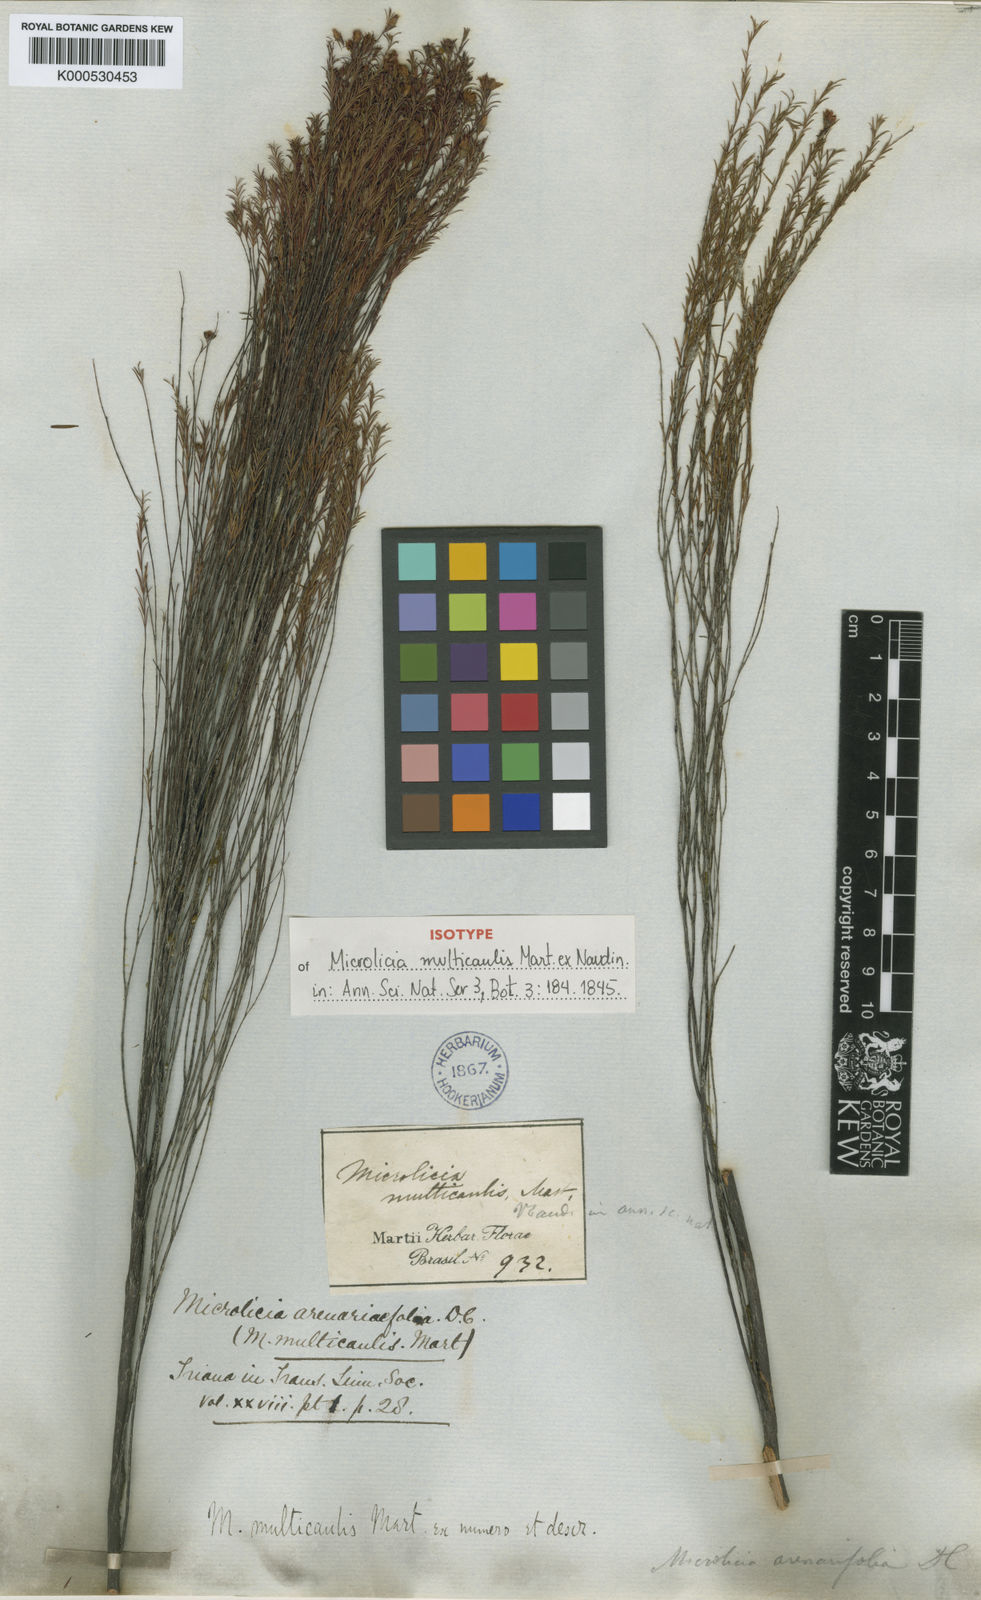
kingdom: Plantae
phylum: Tracheophyta
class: Magnoliopsida
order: Myrtales
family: Melastomataceae
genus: Microlicia
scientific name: Microlicia multicaulis
